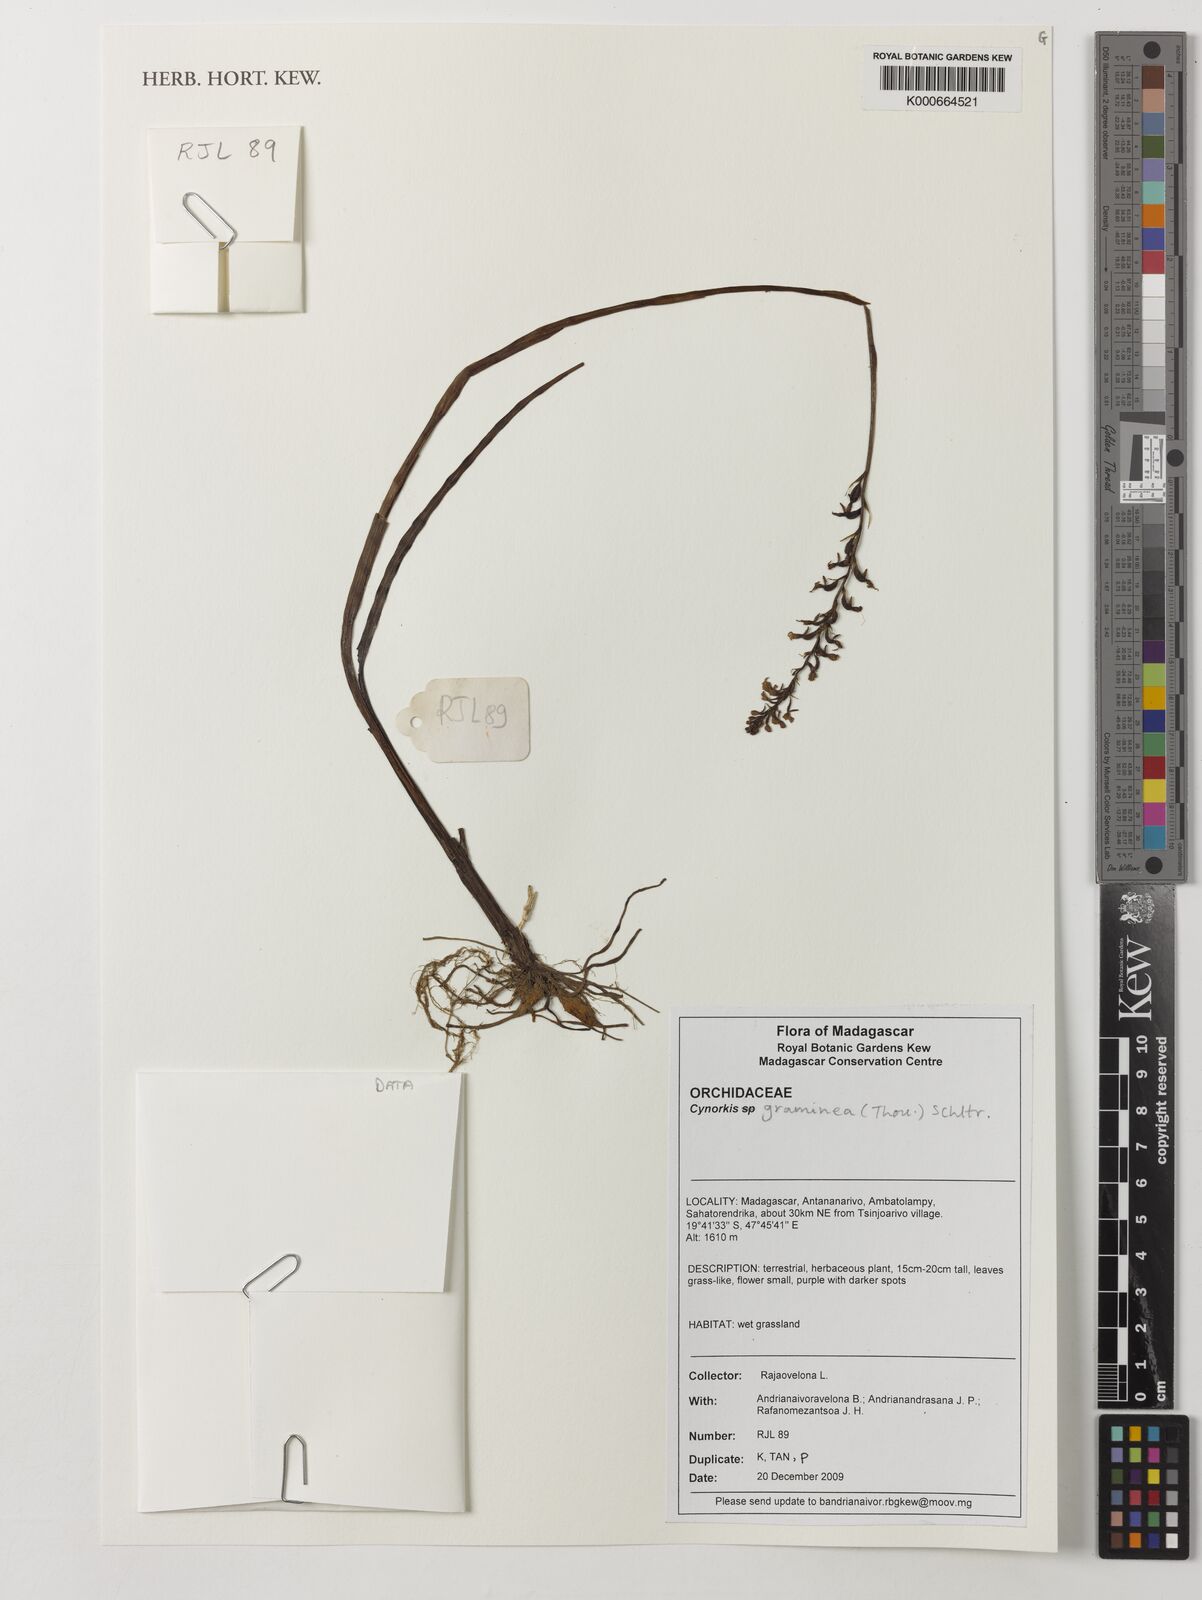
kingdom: Plantae
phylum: Tracheophyta
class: Liliopsida
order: Asparagales
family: Orchidaceae
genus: Cynorkis
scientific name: Cynorkis graminea
